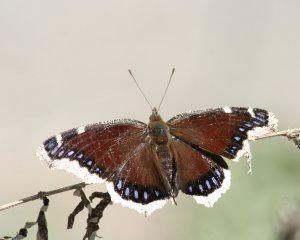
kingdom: Animalia
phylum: Arthropoda
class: Insecta
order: Lepidoptera
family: Nymphalidae
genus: Nymphalis
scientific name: Nymphalis antiopa
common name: Mourning Cloak
